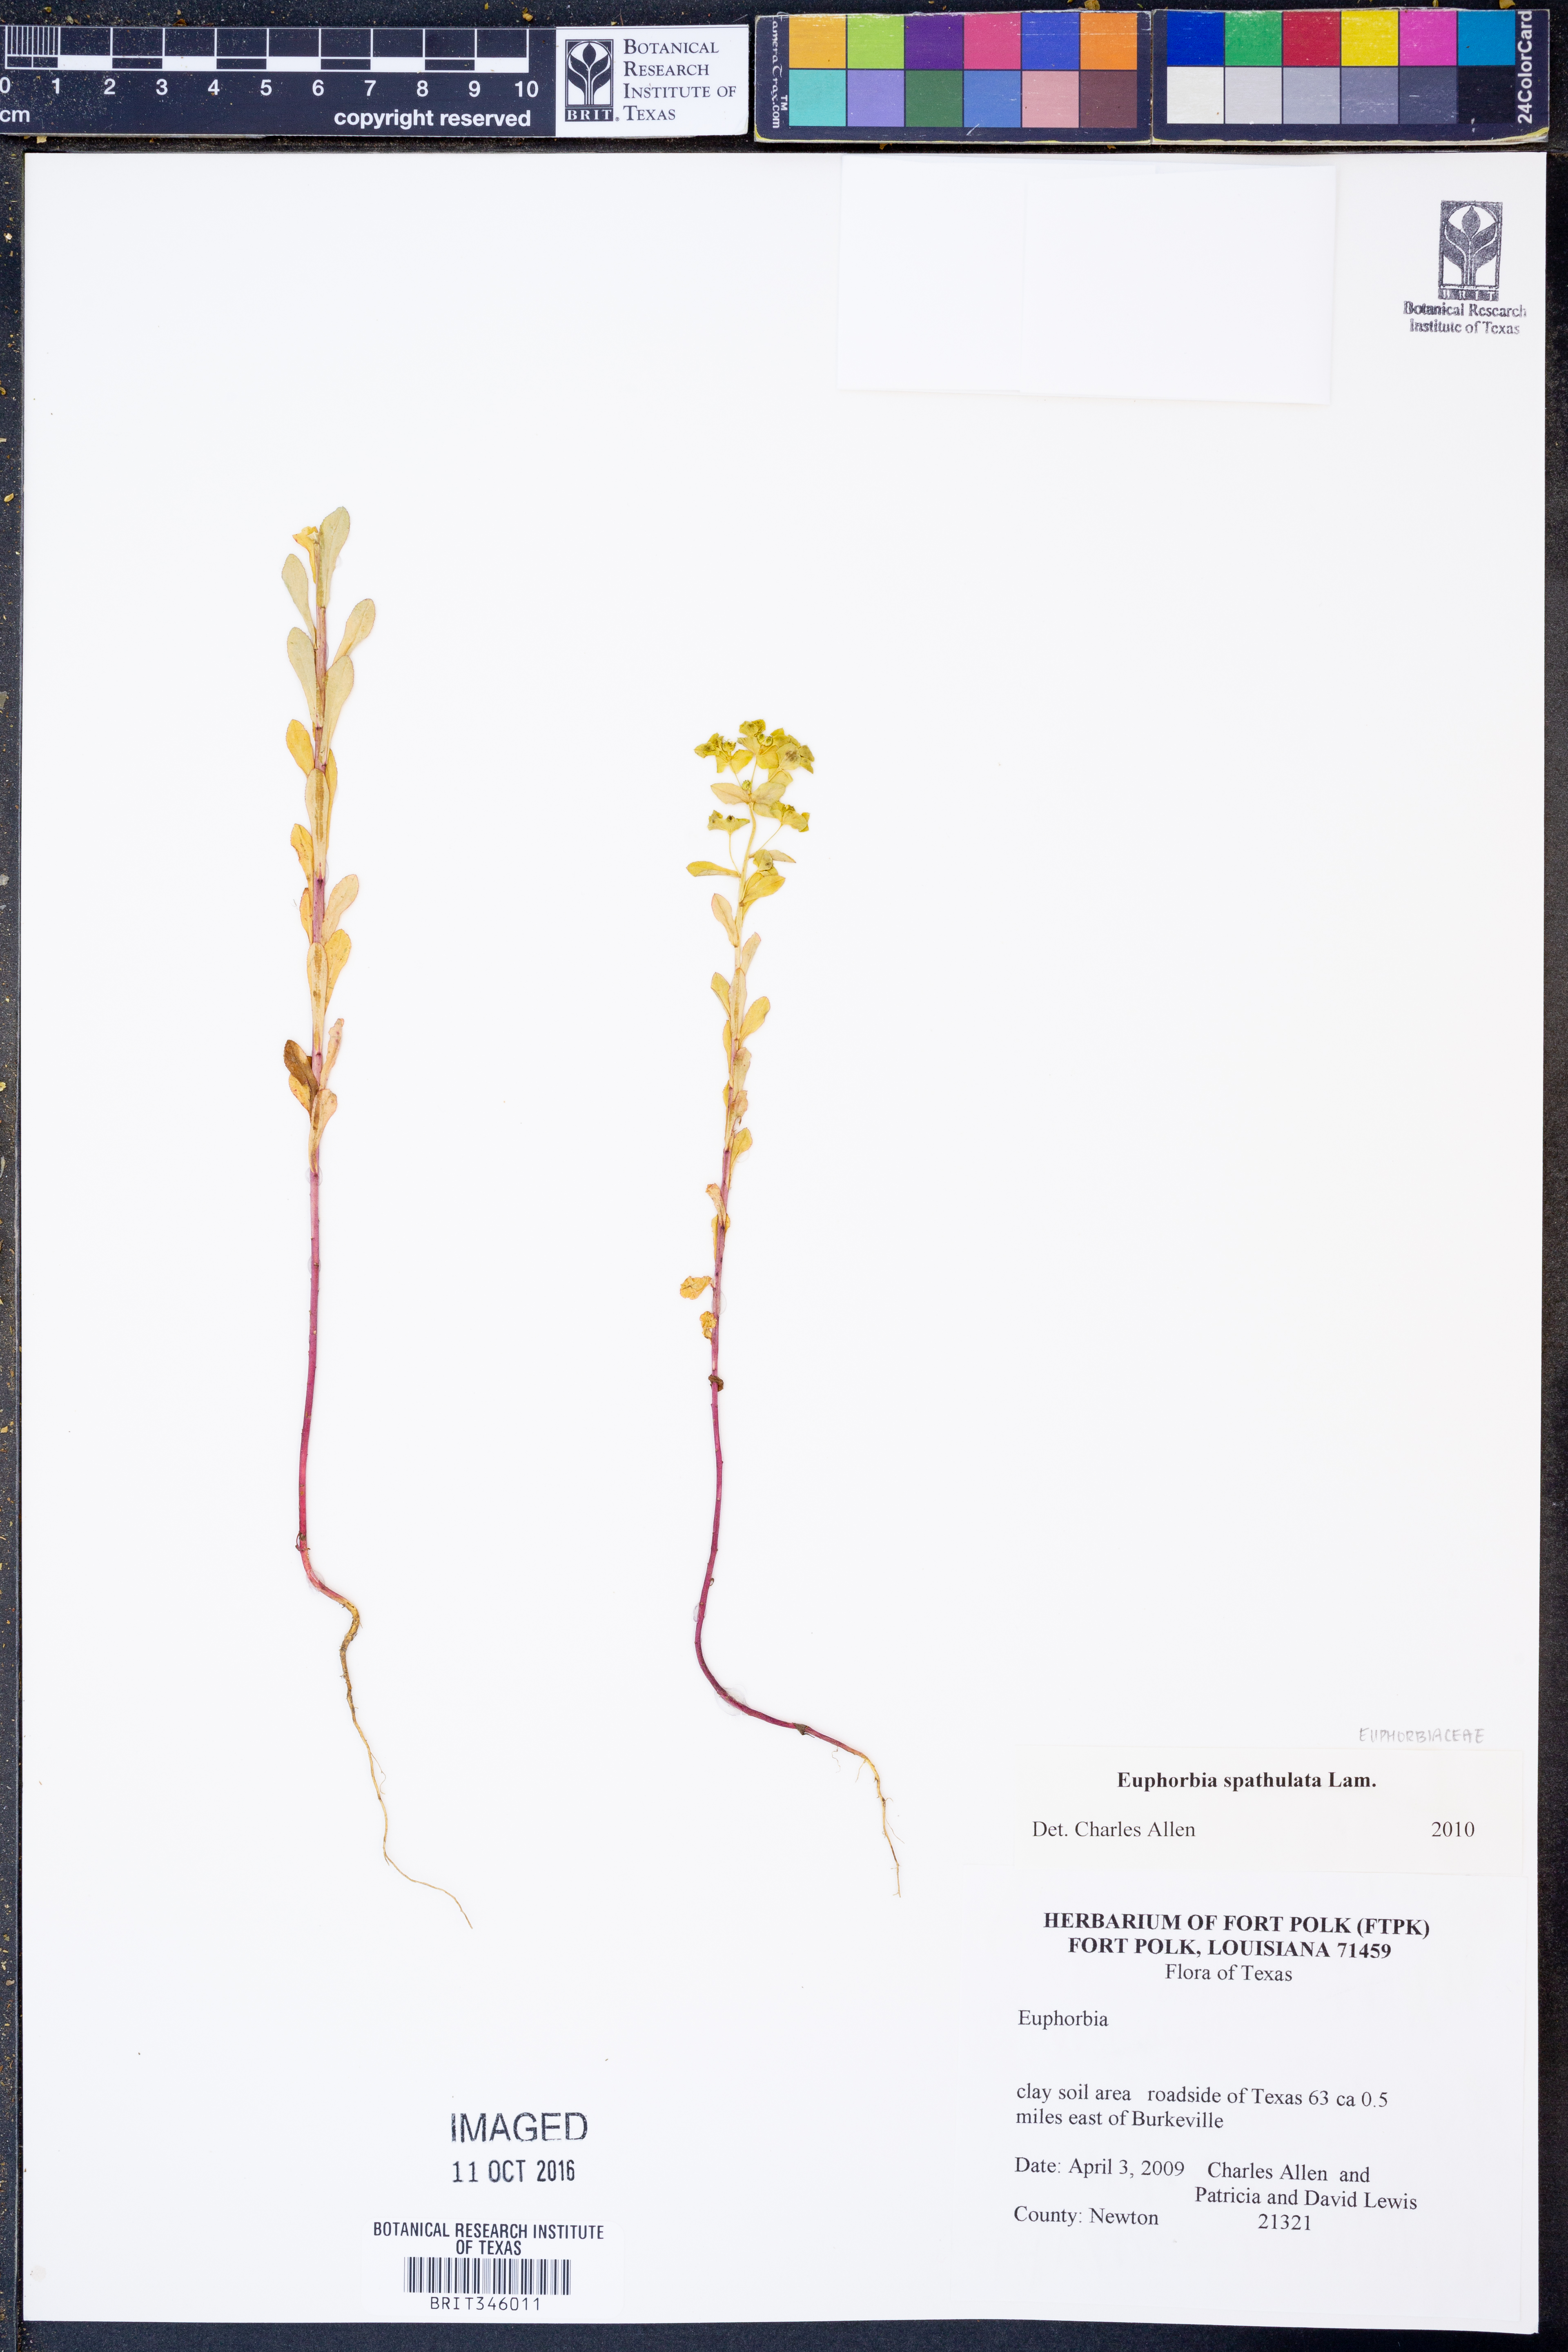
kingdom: Plantae
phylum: Tracheophyta
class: Magnoliopsida
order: Malpighiales
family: Euphorbiaceae
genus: Euphorbia
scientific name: Euphorbia spathulata
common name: Blunt spurge
